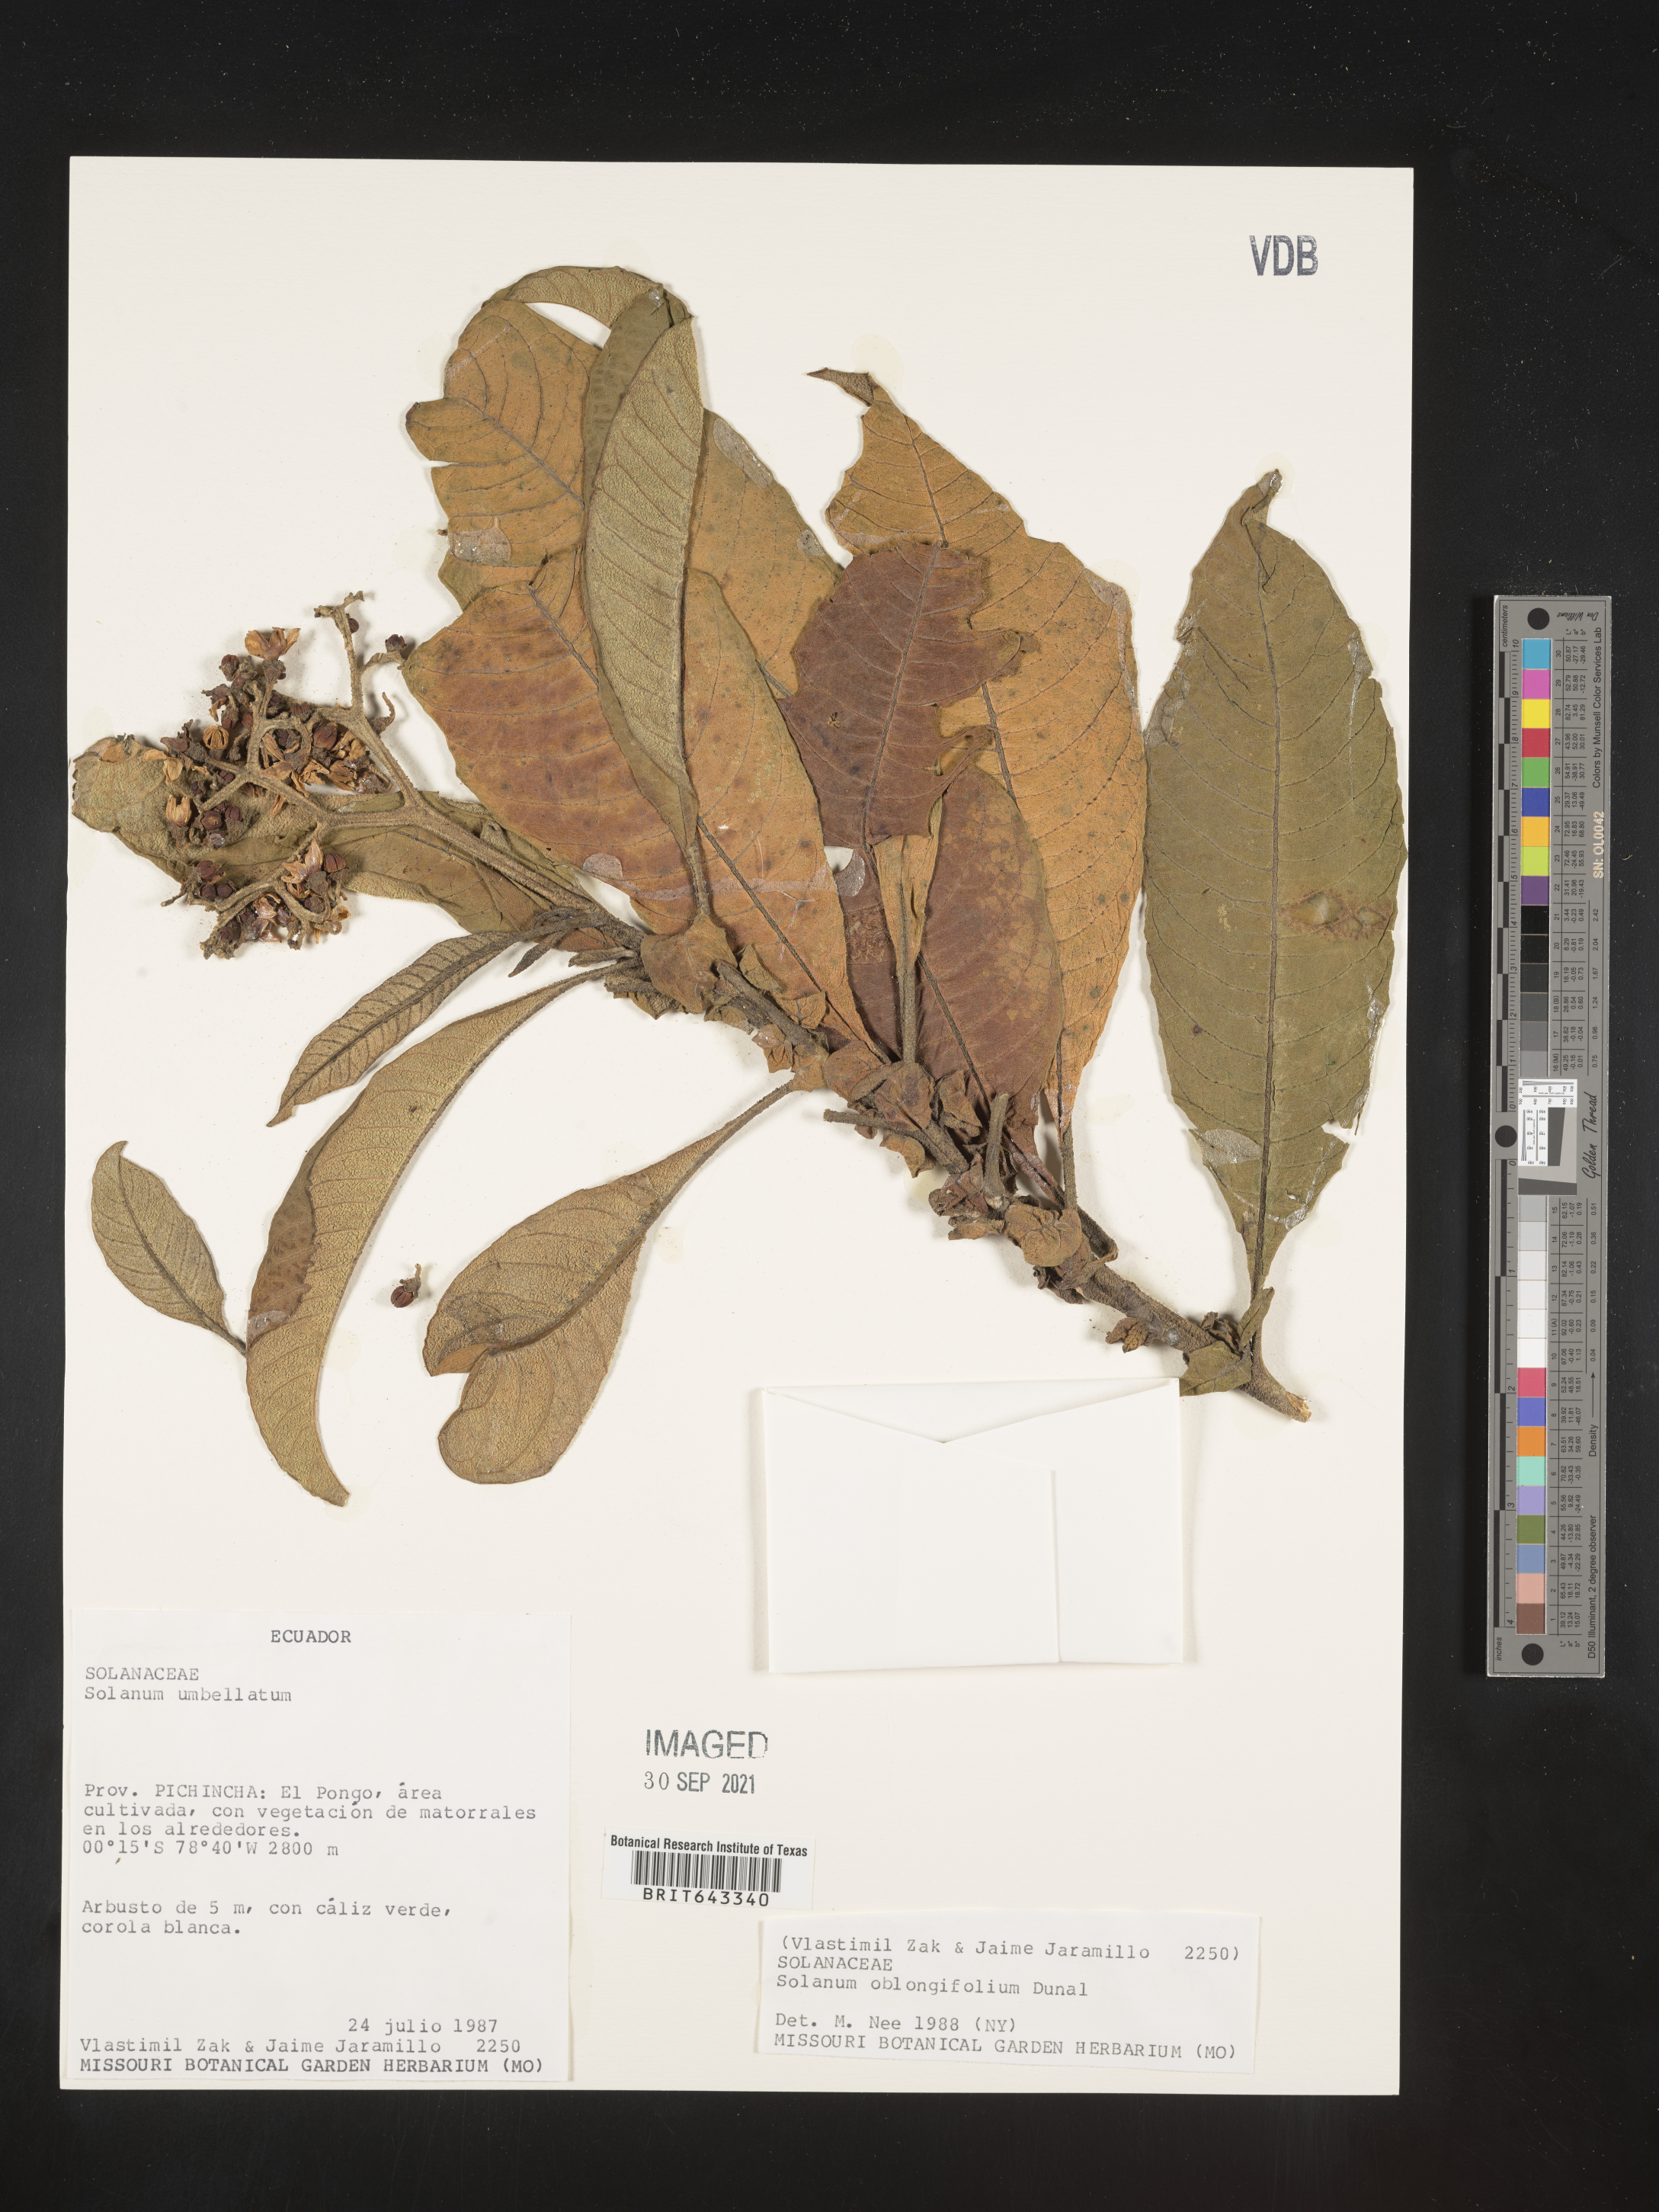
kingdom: Plantae
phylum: Tracheophyta
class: Magnoliopsida
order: Solanales
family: Solanaceae
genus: Solanum
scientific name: Solanum
